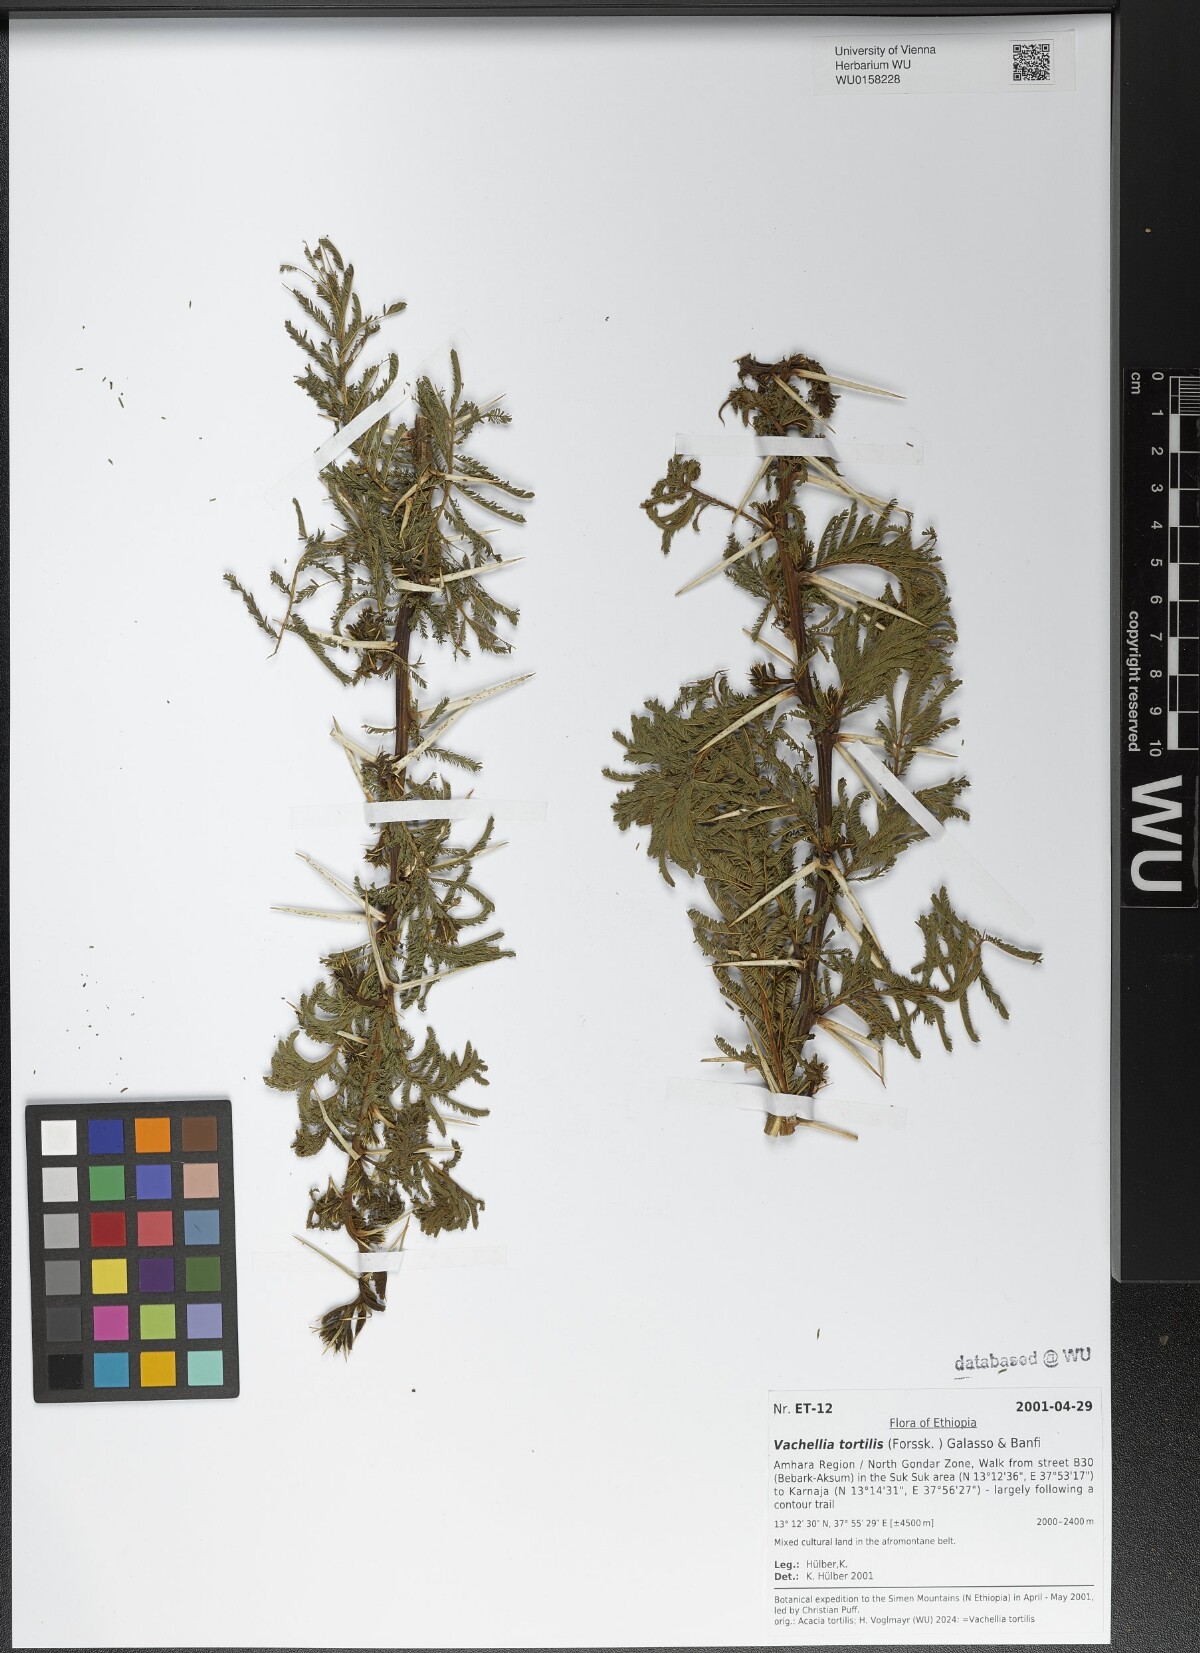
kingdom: Plantae
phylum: Tracheophyta
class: Magnoliopsida
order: Fabales
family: Fabaceae
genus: Vachellia
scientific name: Vachellia tortilis
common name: Umbrella thorn acacia
